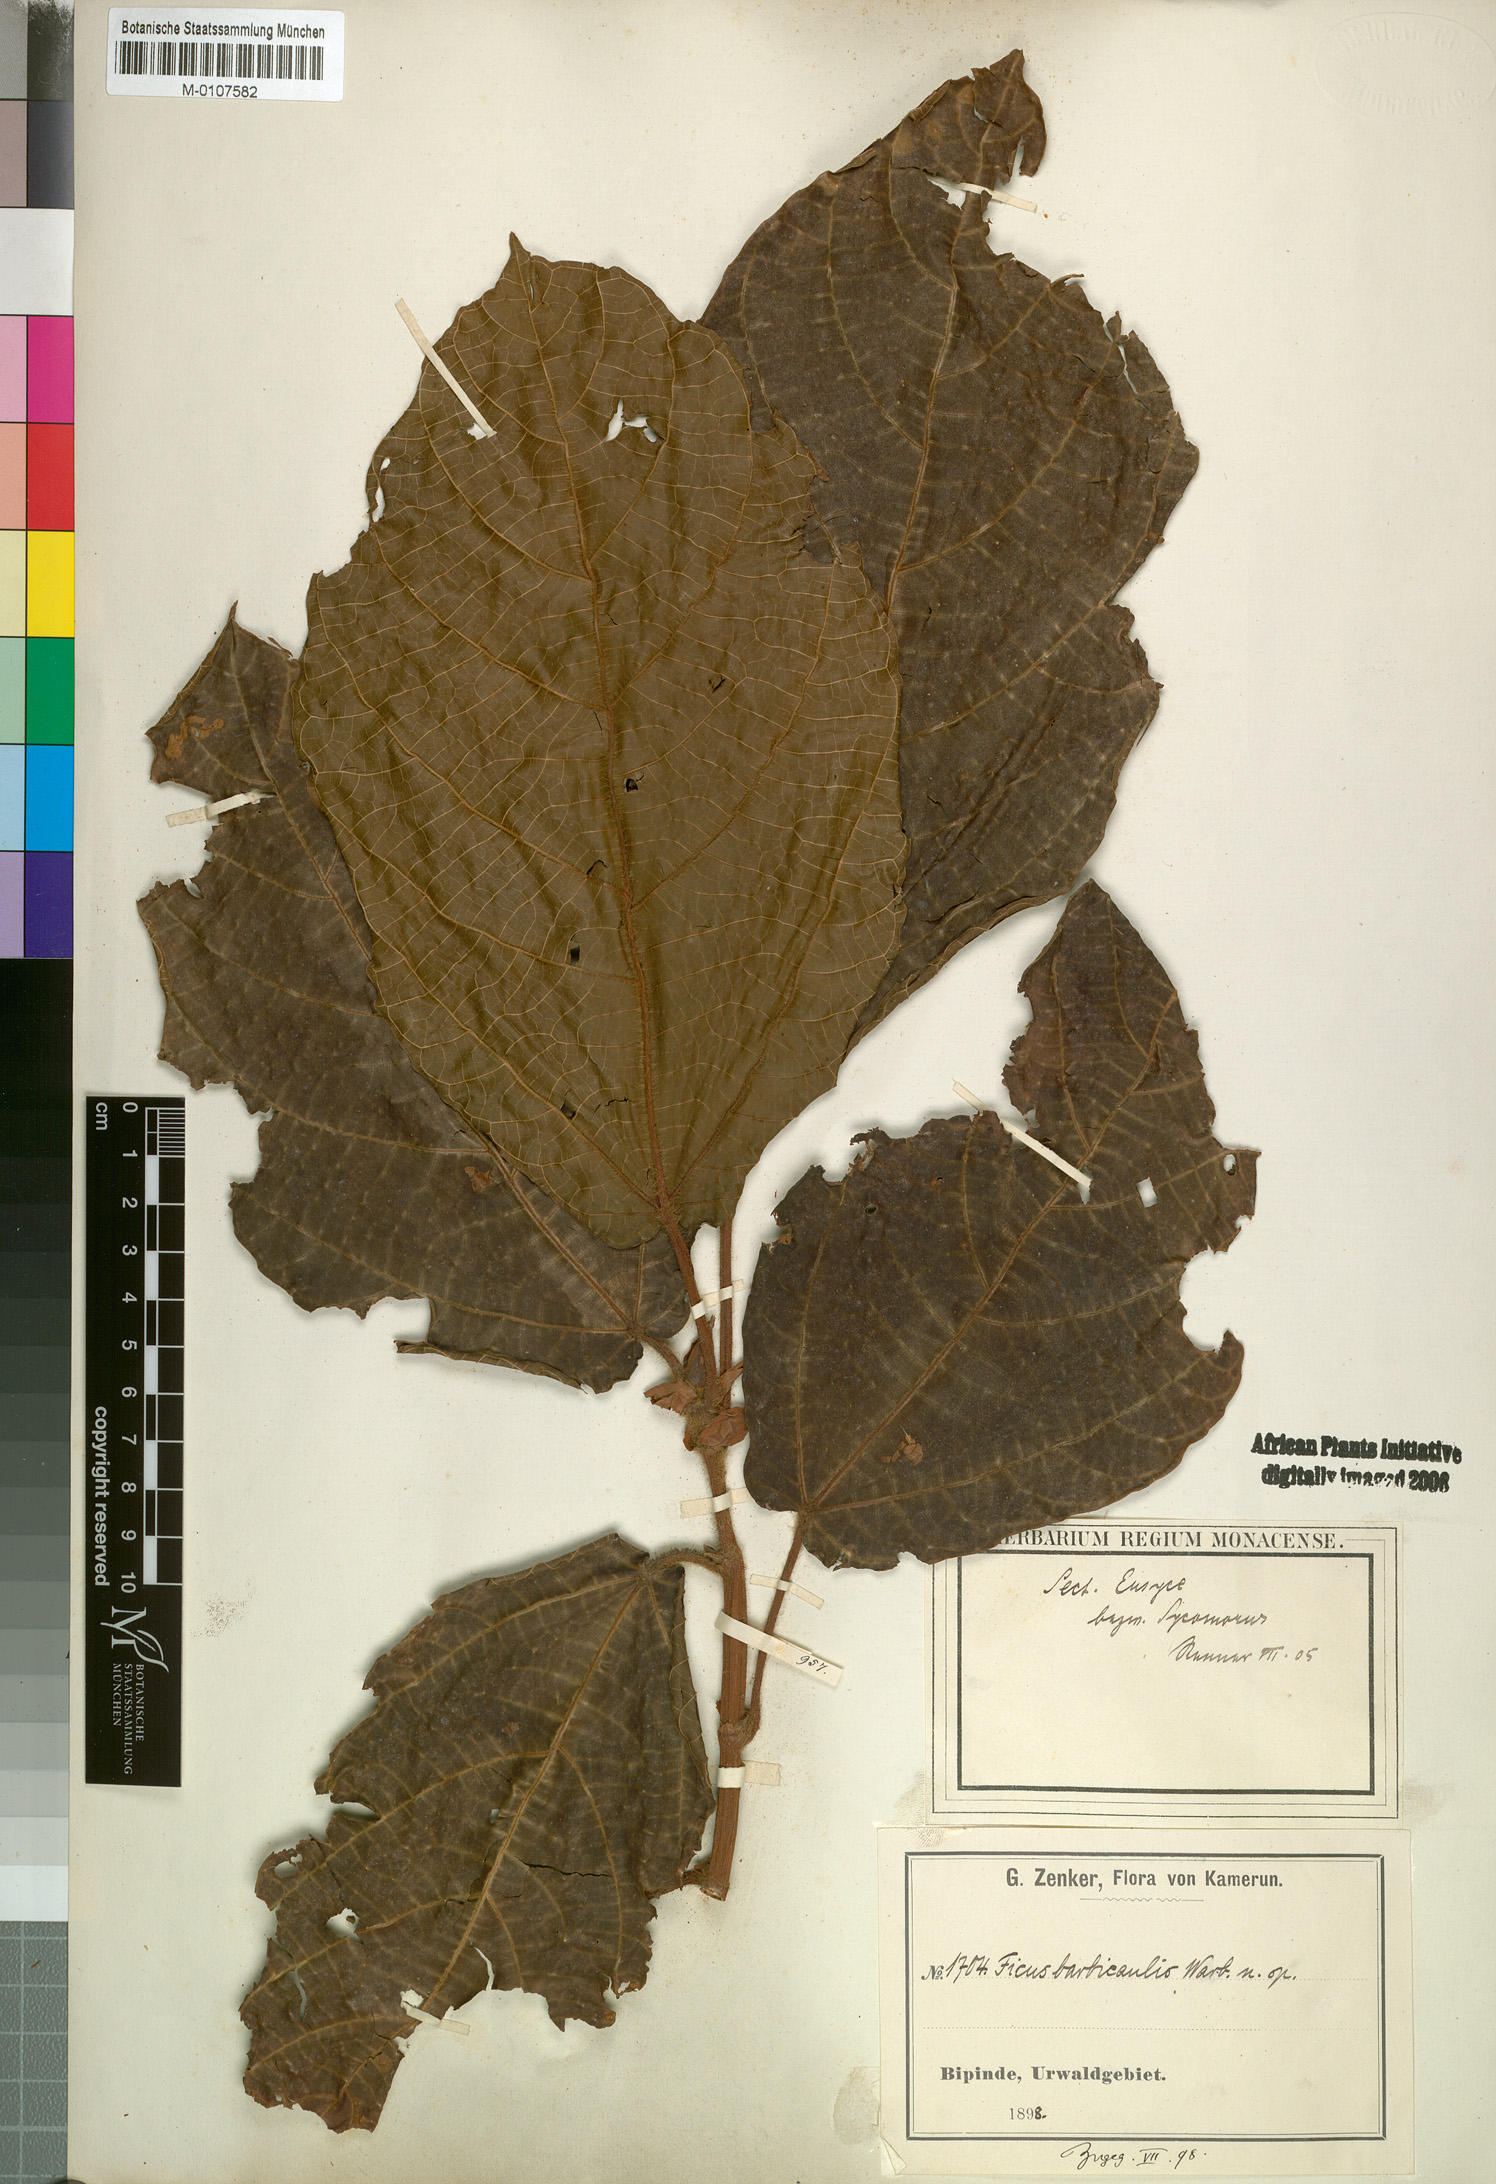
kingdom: Plantae
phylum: Tracheophyta
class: Magnoliopsida
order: Rosales
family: Moraceae
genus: Ficus
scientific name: Ficus
